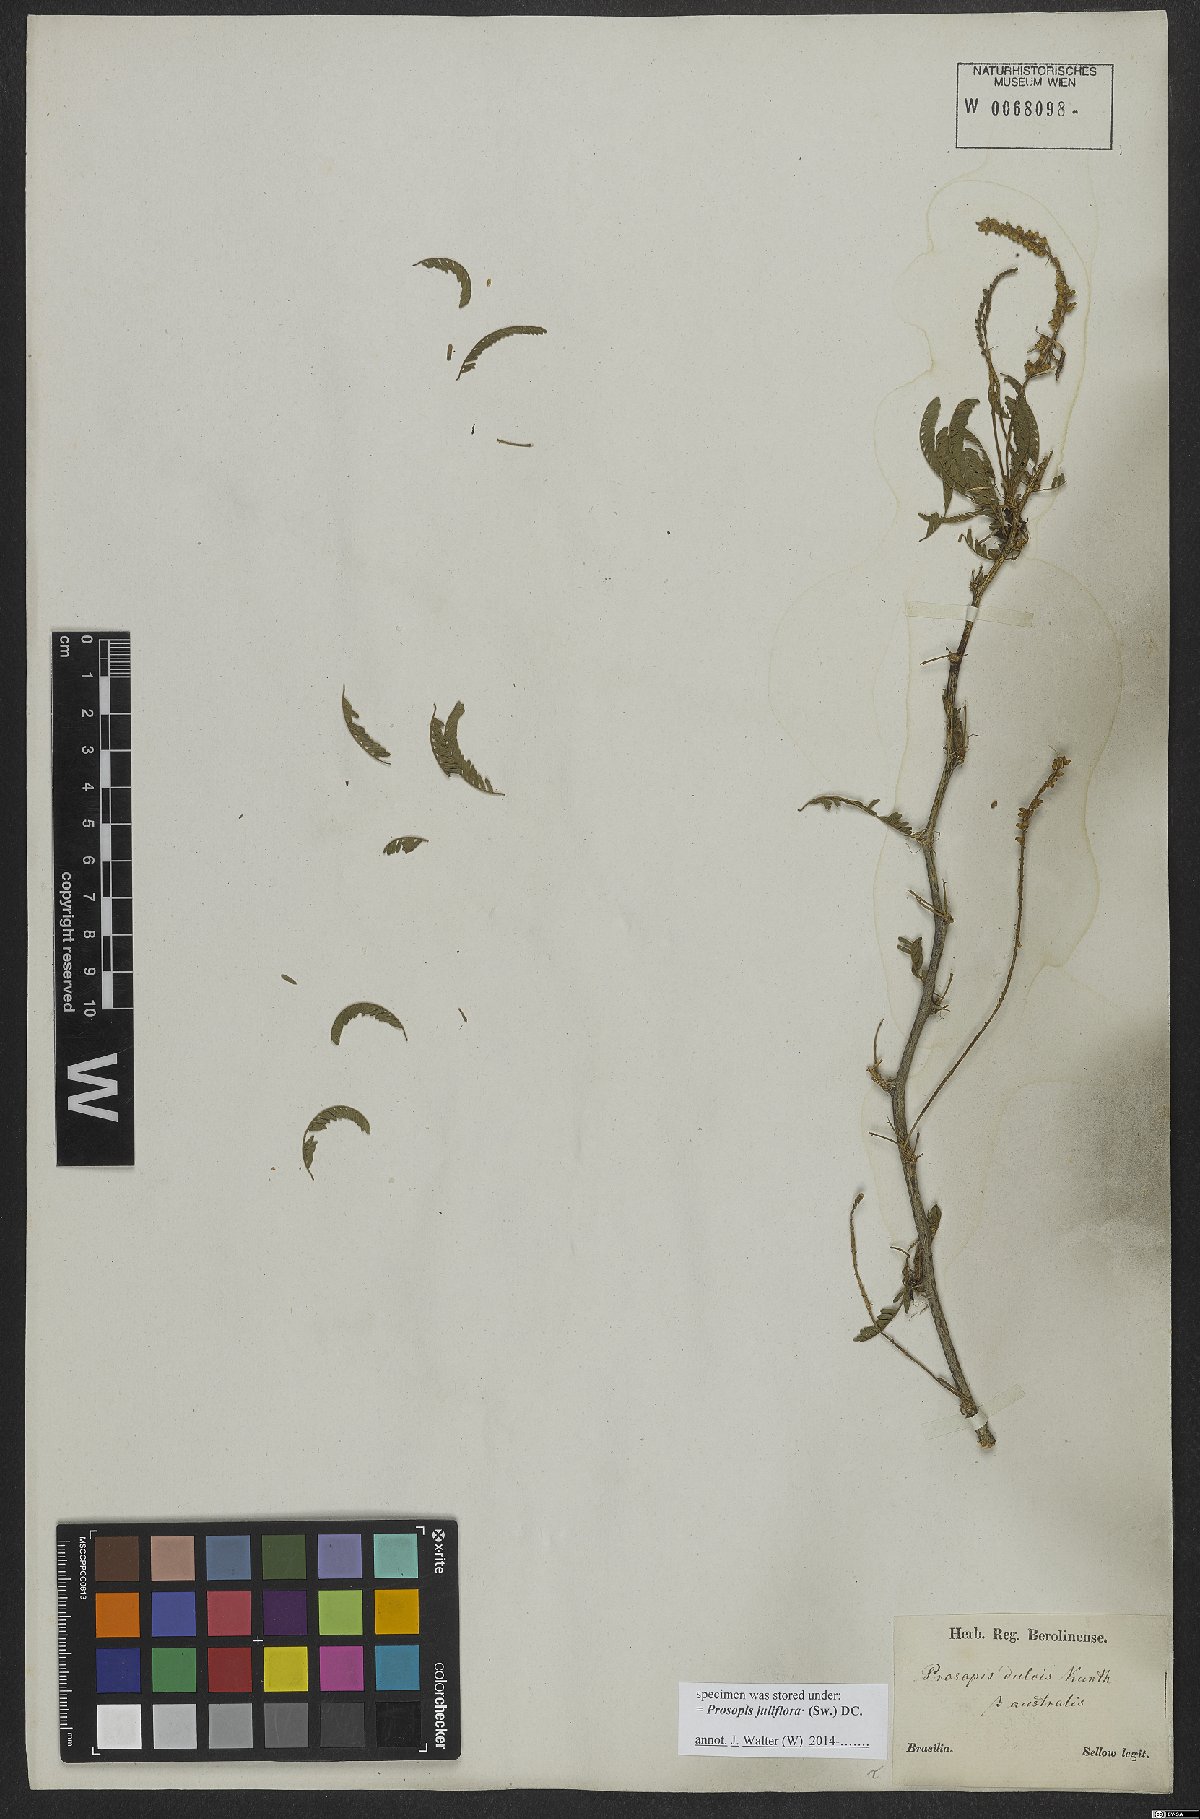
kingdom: Plantae
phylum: Tracheophyta
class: Magnoliopsida
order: Fabales
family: Fabaceae
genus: Prosopis
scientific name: Prosopis juliflora
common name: Mesquite
